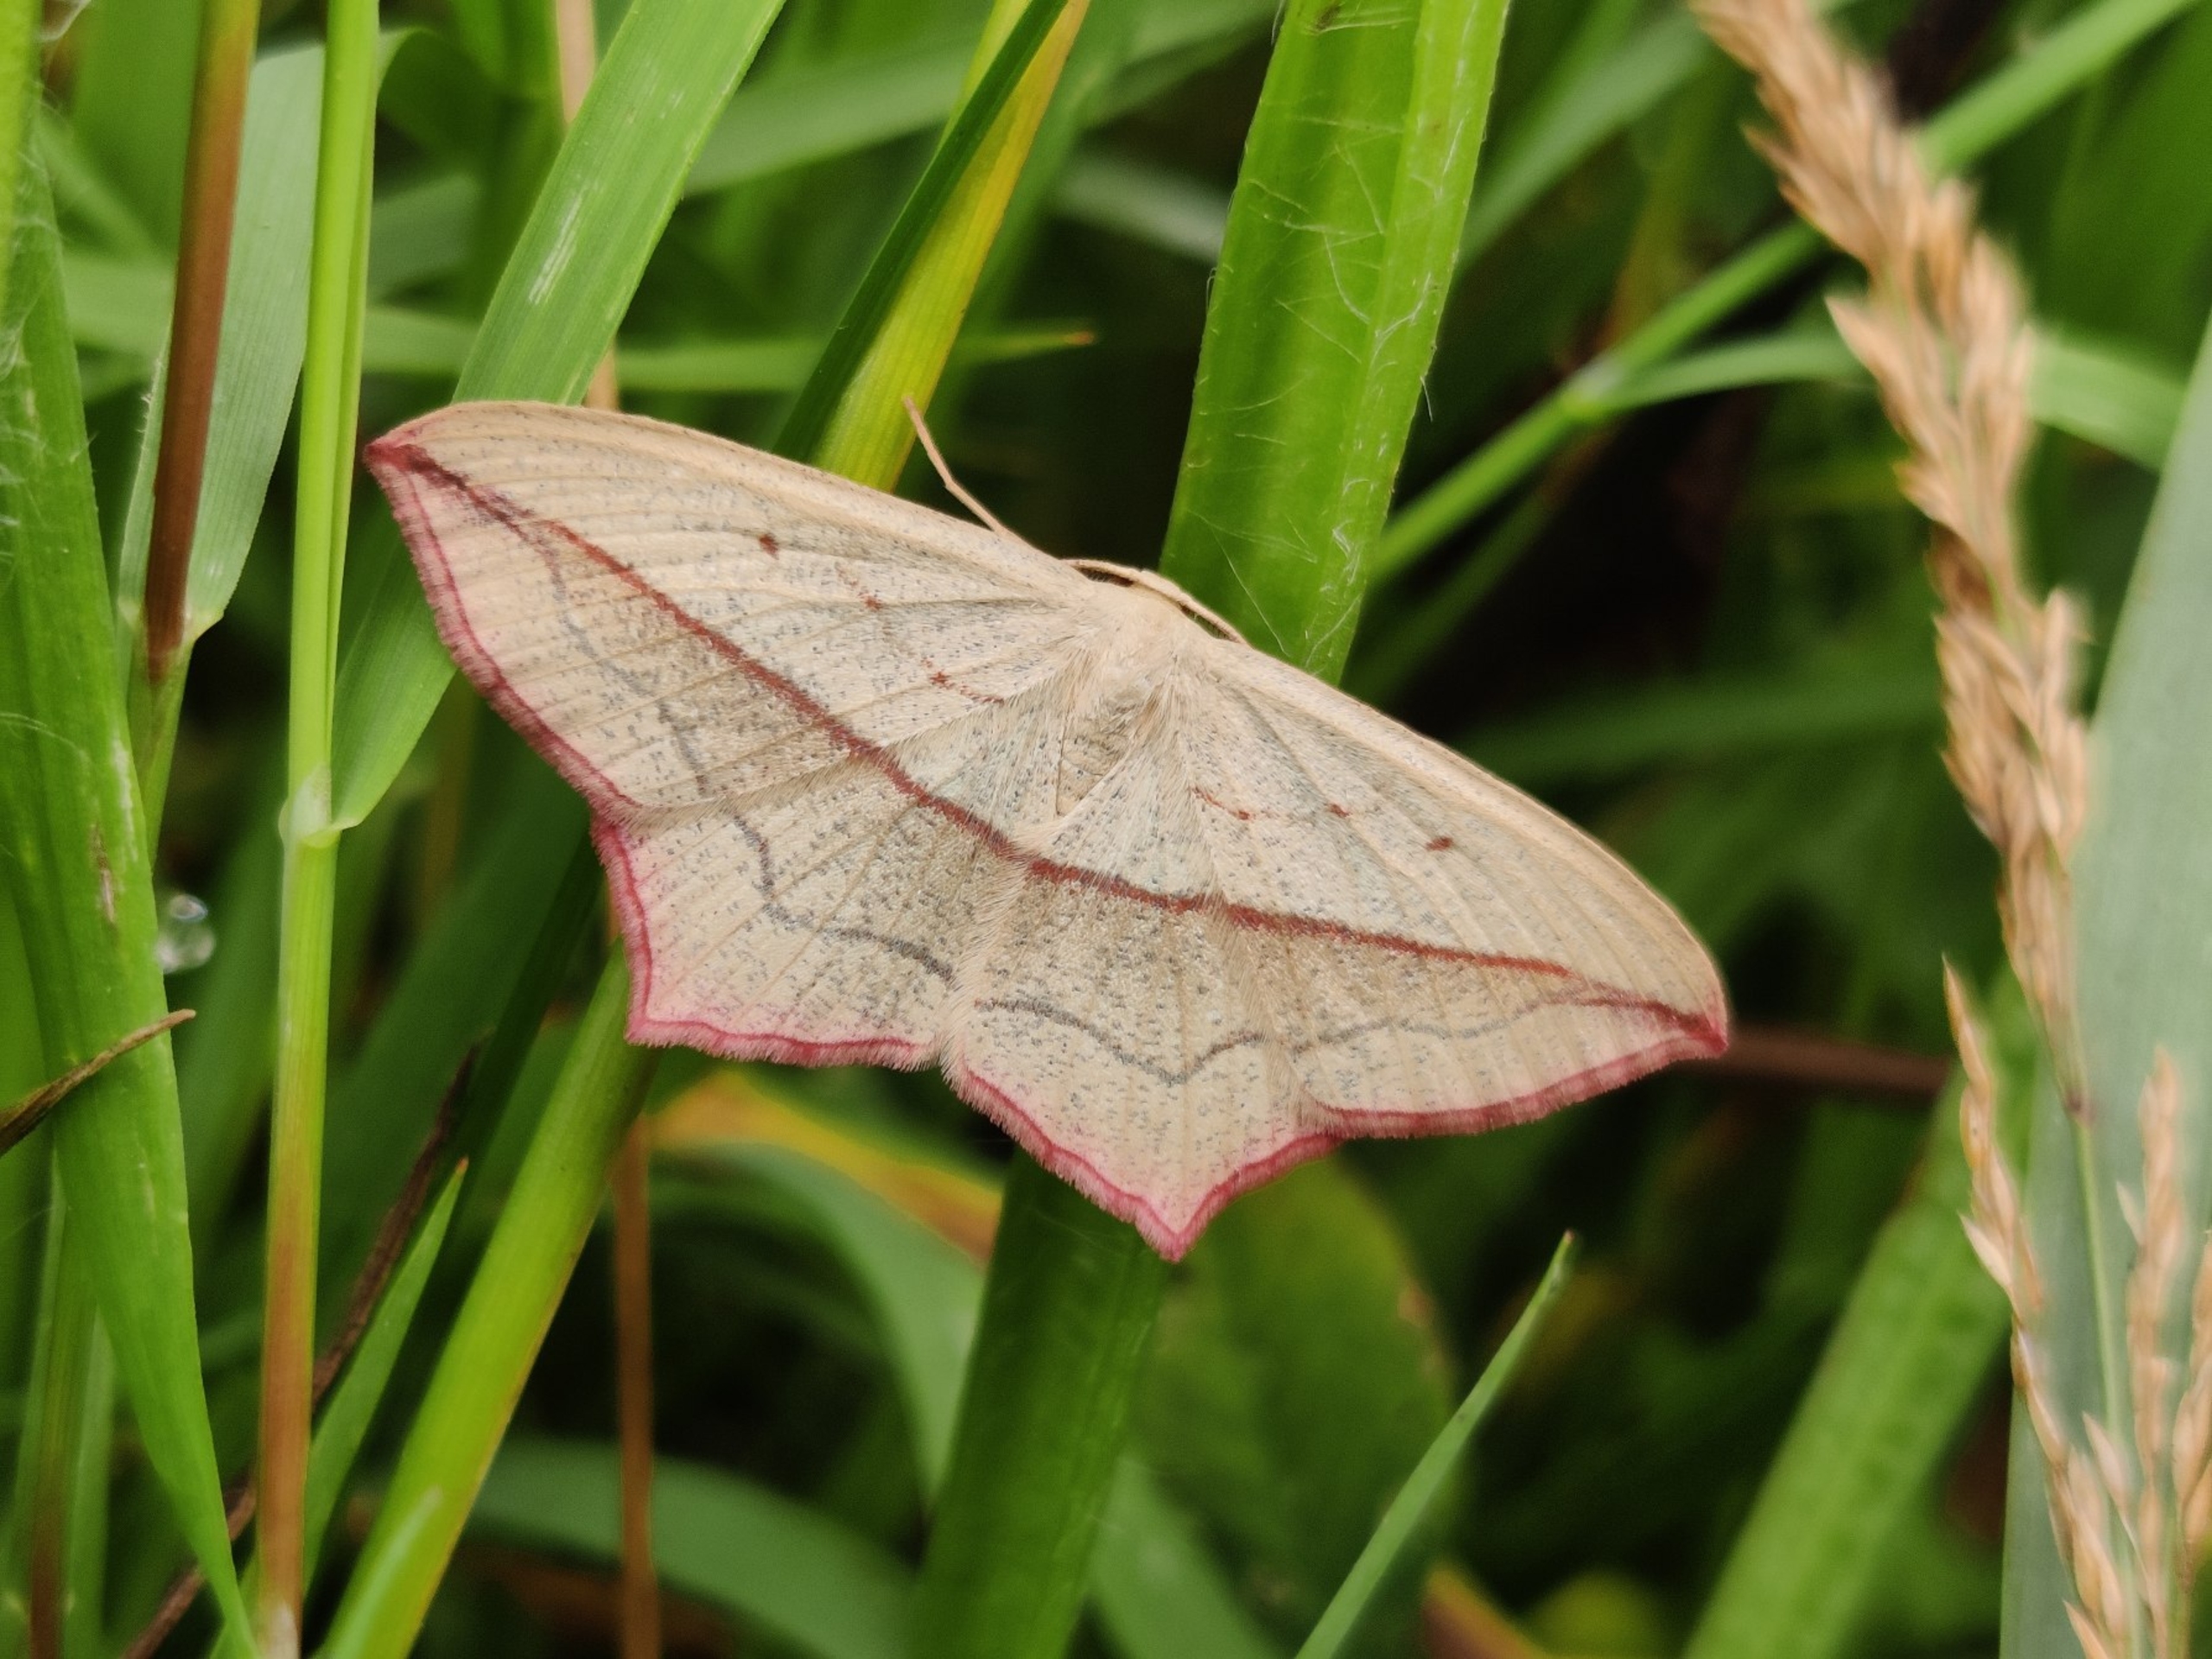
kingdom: Animalia
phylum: Arthropoda
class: Insecta
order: Lepidoptera
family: Geometridae
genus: Timandra
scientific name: Timandra comae
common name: Gul syremåler
